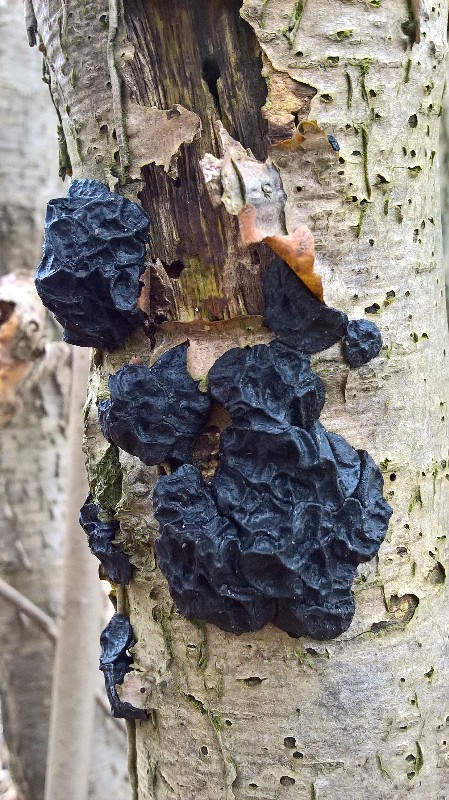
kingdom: Fungi
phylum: Basidiomycota
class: Agaricomycetes
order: Auriculariales
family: Auriculariaceae
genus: Exidia
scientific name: Exidia nigricans
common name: almindelig bævretop
